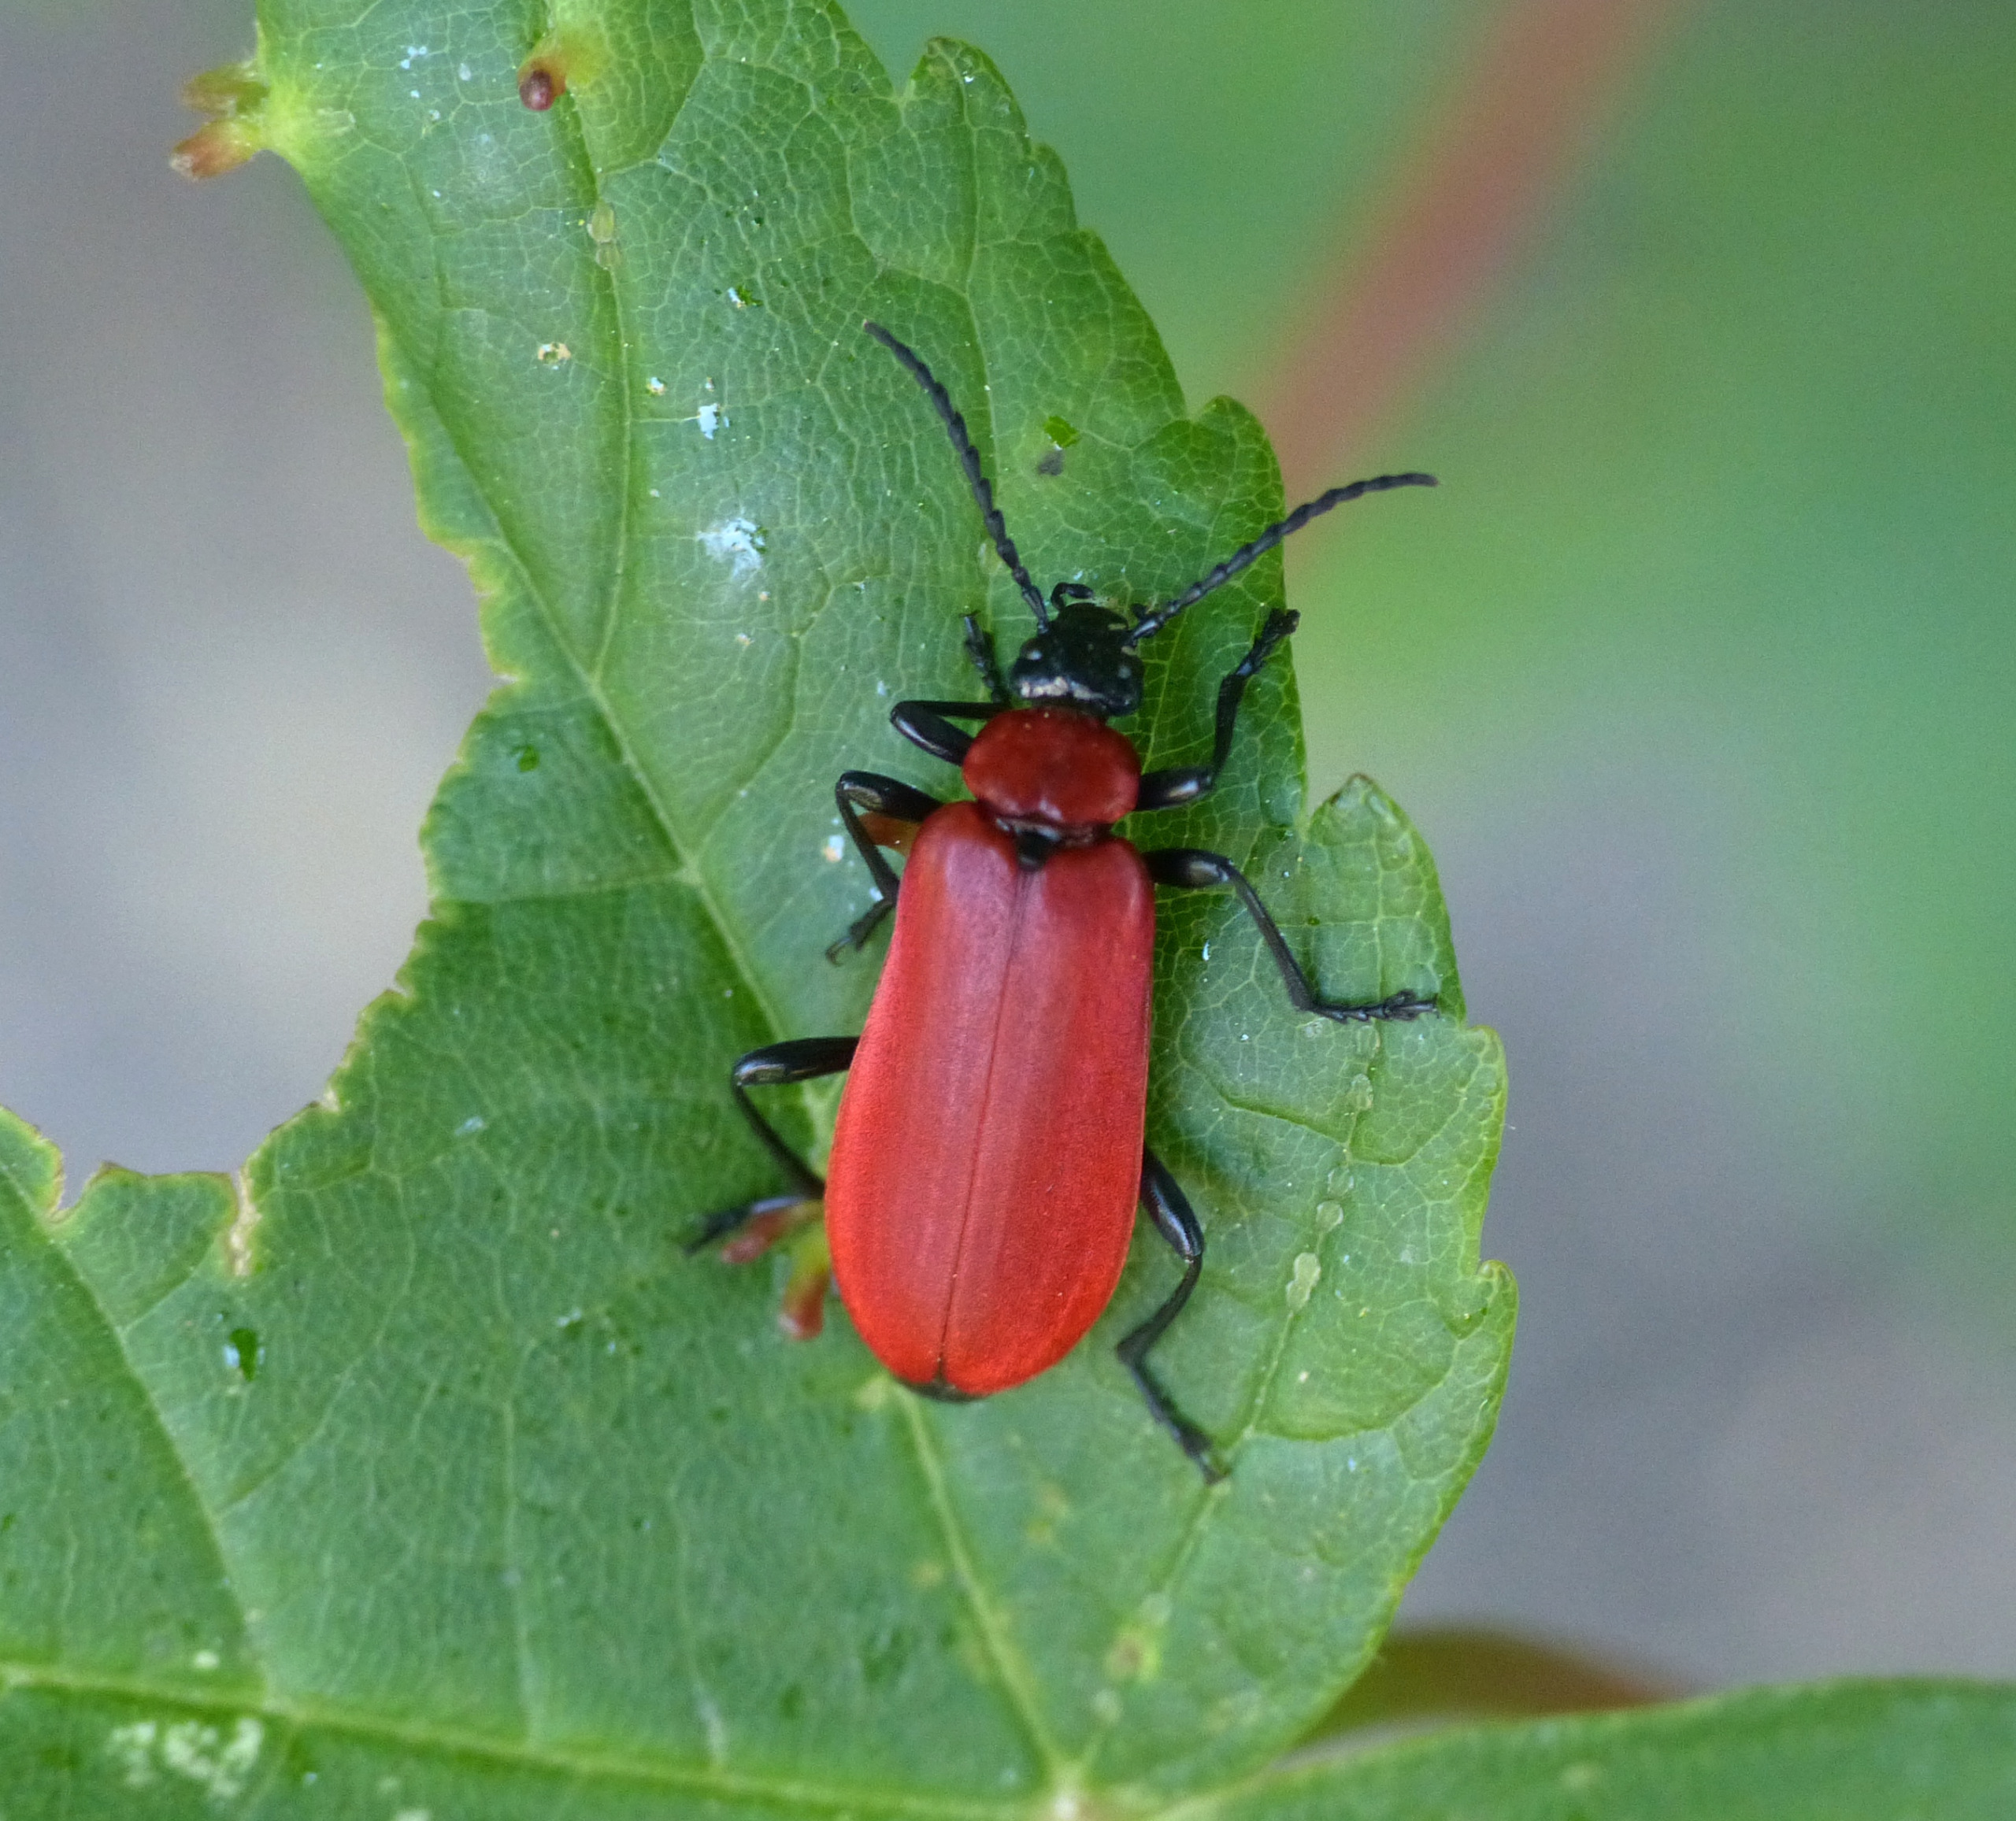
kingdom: Animalia
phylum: Arthropoda
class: Insecta
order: Coleoptera
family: Pyrochroidae
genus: Pyrochroa
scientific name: Pyrochroa coccinea
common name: Sorthovedet kardinalbille
